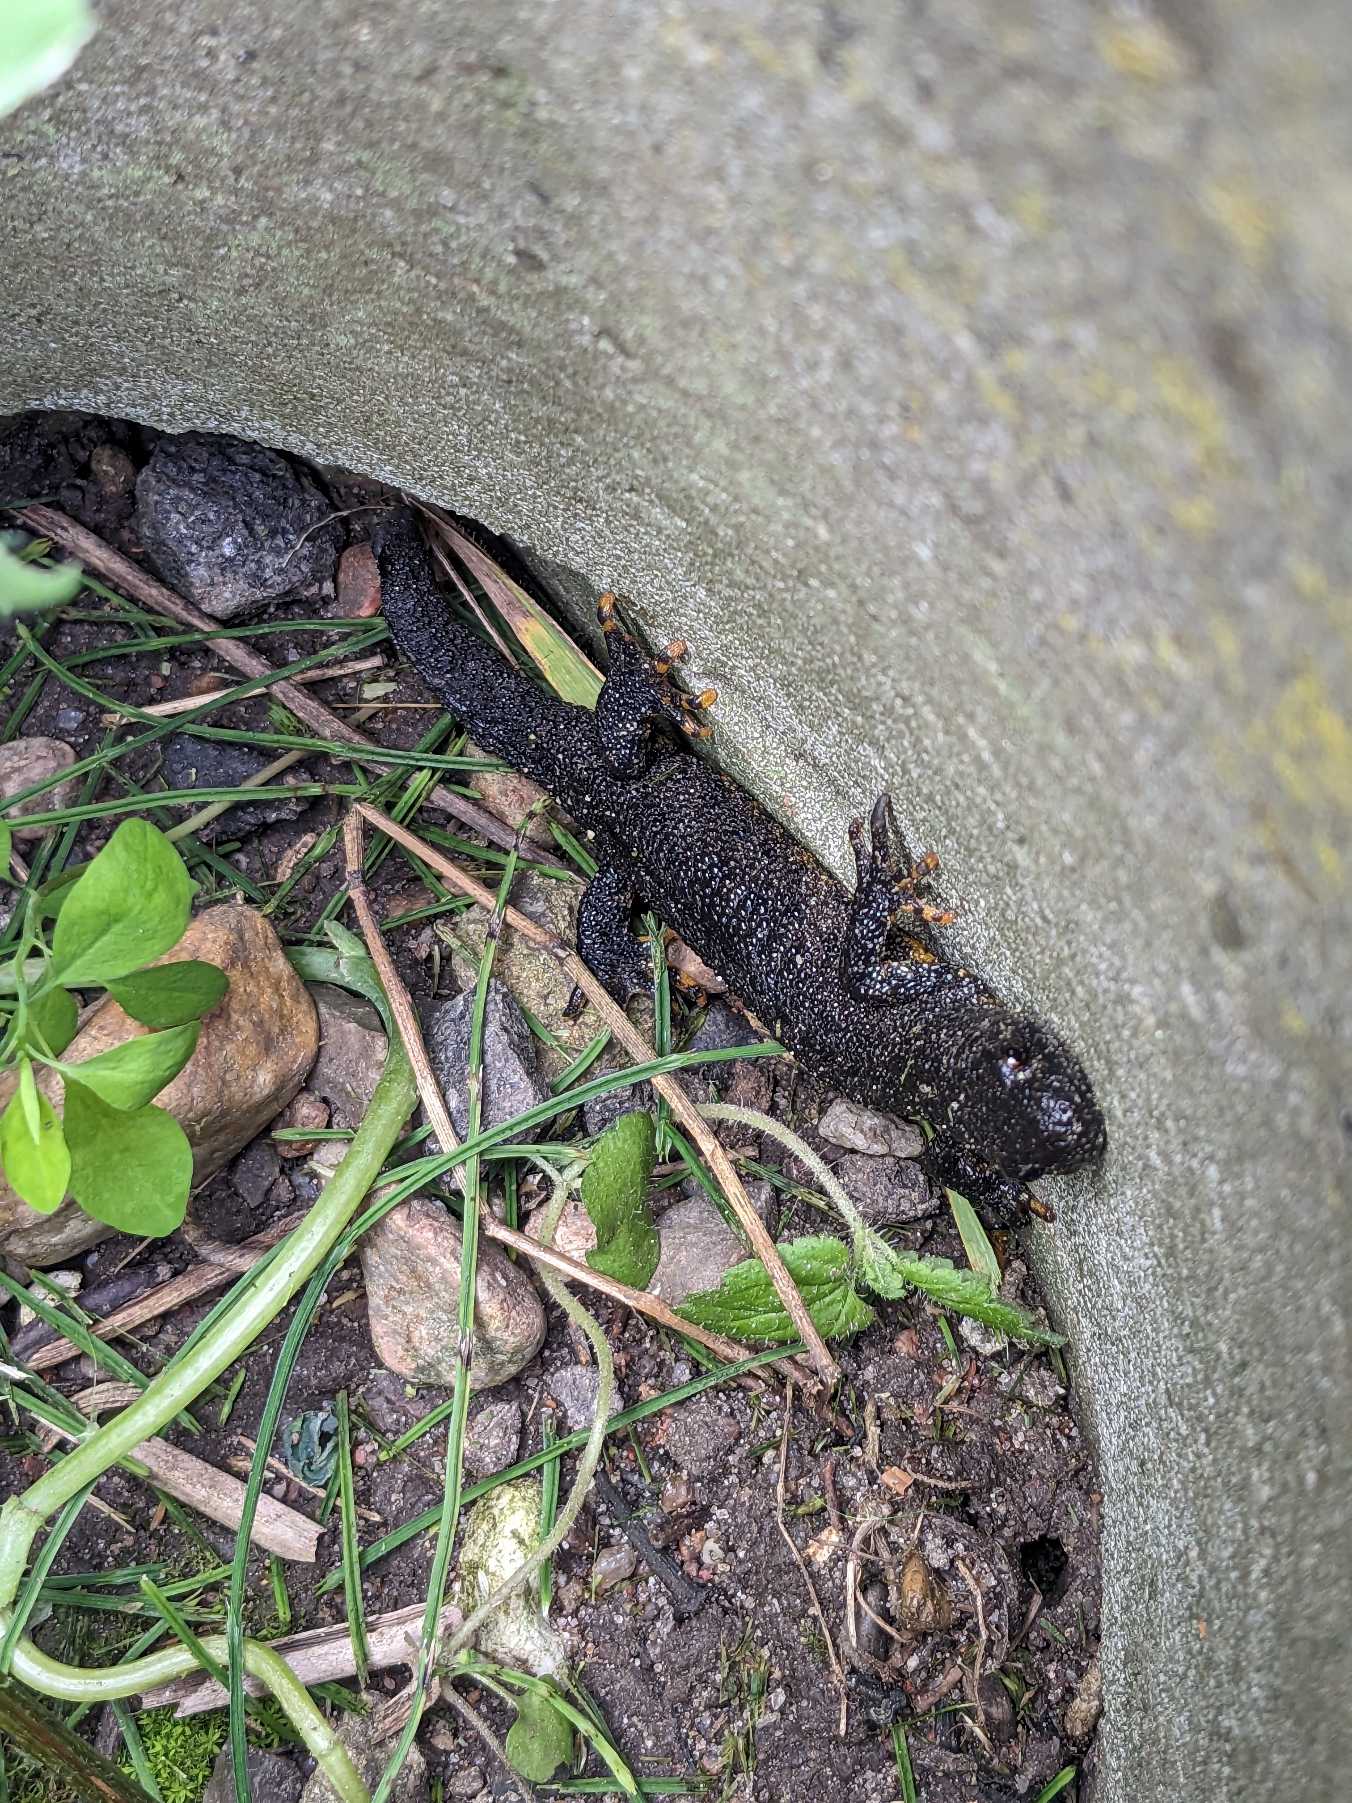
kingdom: Animalia
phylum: Chordata
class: Amphibia
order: Caudata
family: Salamandridae
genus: Triturus
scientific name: Triturus cristatus
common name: Stor vandsalamander
